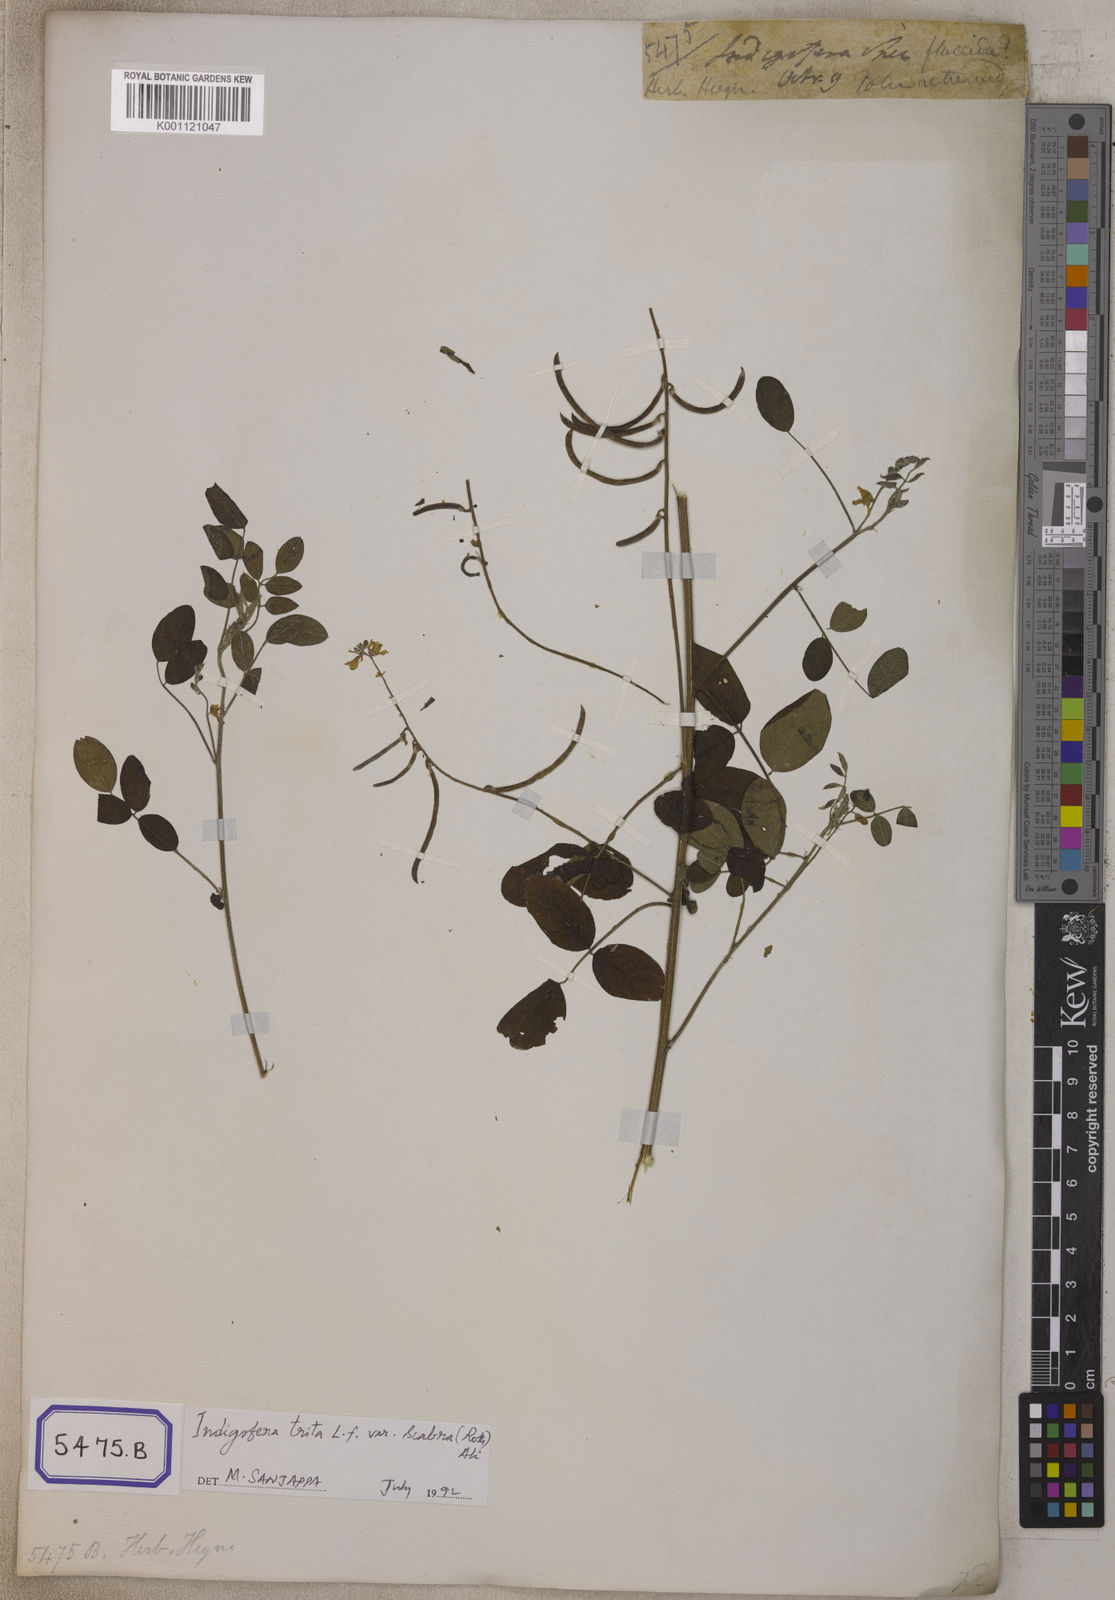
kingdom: Plantae
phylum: Tracheophyta
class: Magnoliopsida
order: Fabales
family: Fabaceae
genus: Indigofera
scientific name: Indigofera subulata
